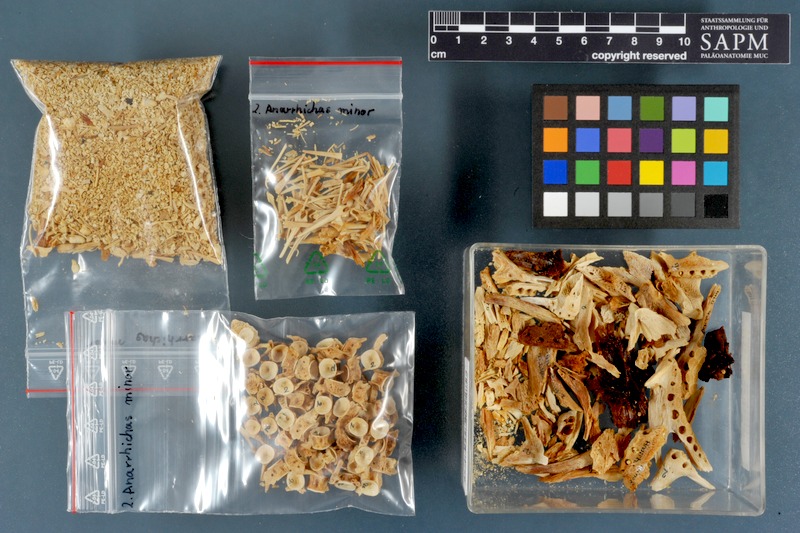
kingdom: Animalia
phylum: Chordata
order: Perciformes
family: Anarhichadidae
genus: Anarhichas
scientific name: Anarhichas minor
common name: Spotted catfish
